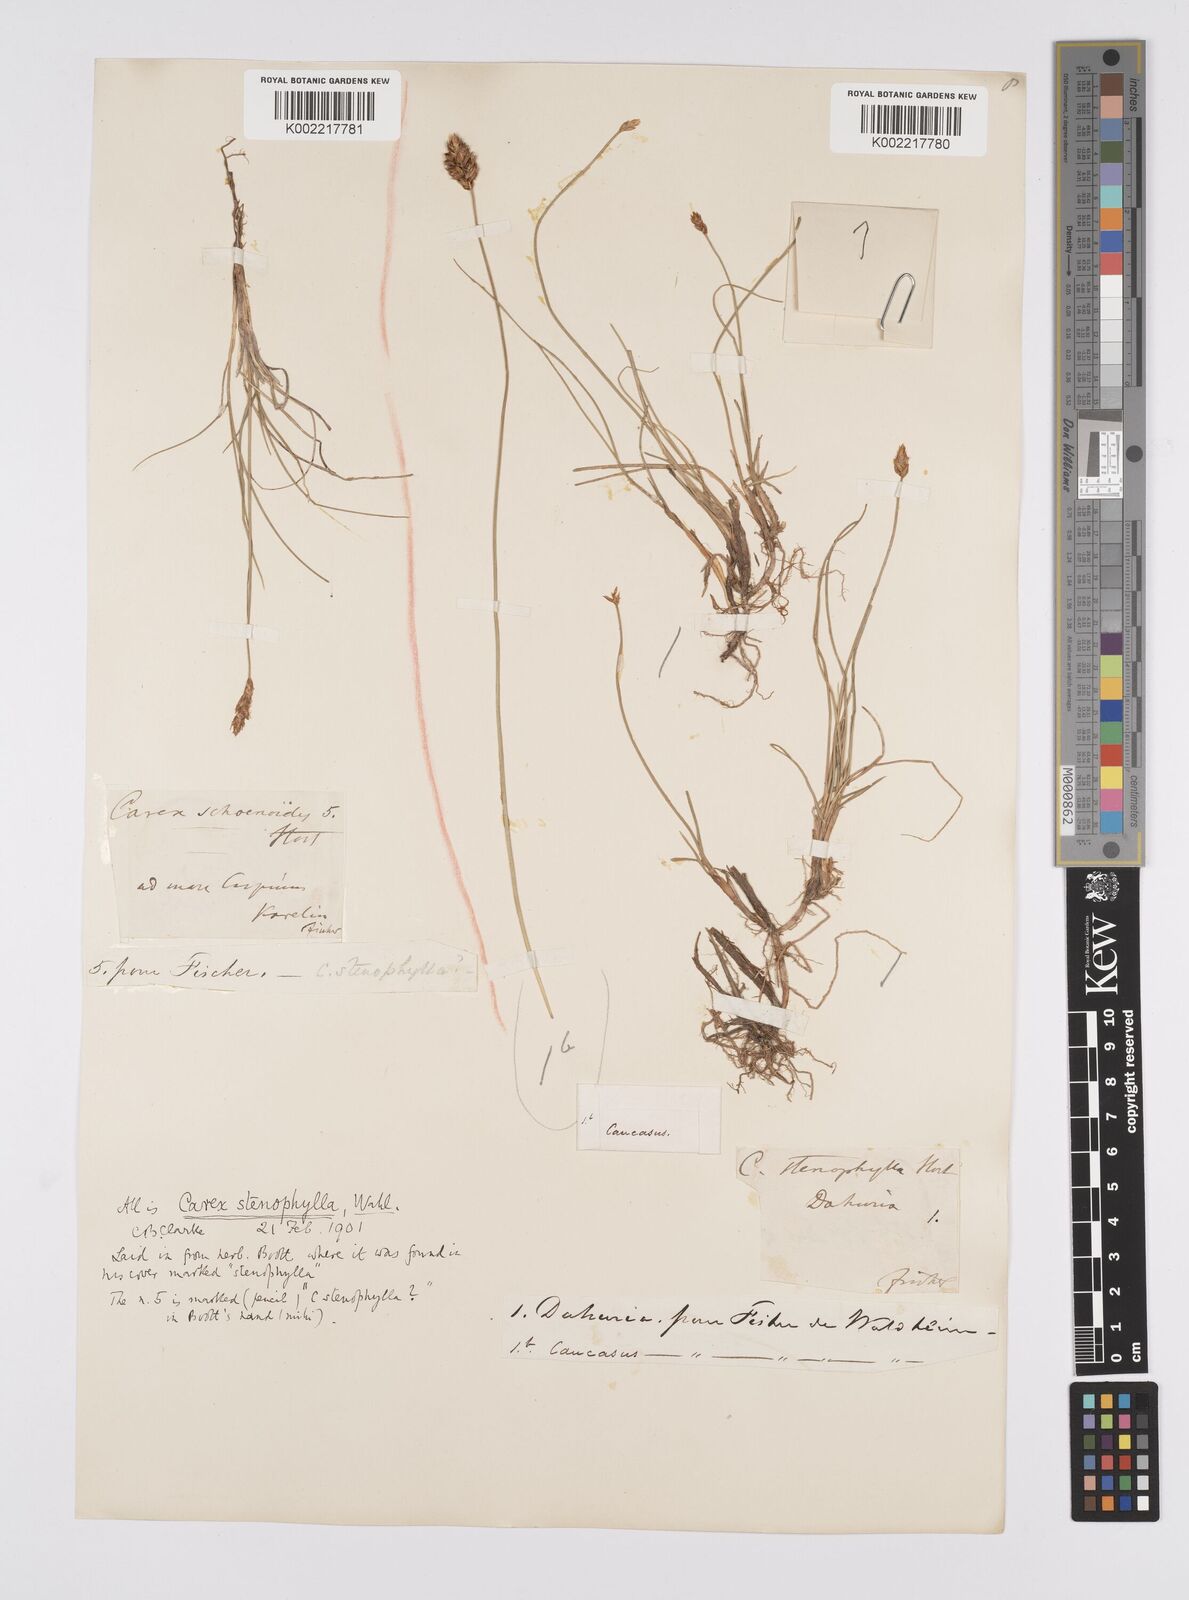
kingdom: Plantae
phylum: Tracheophyta
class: Liliopsida
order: Poales
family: Cyperaceae
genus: Carex
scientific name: Carex stenophylla
